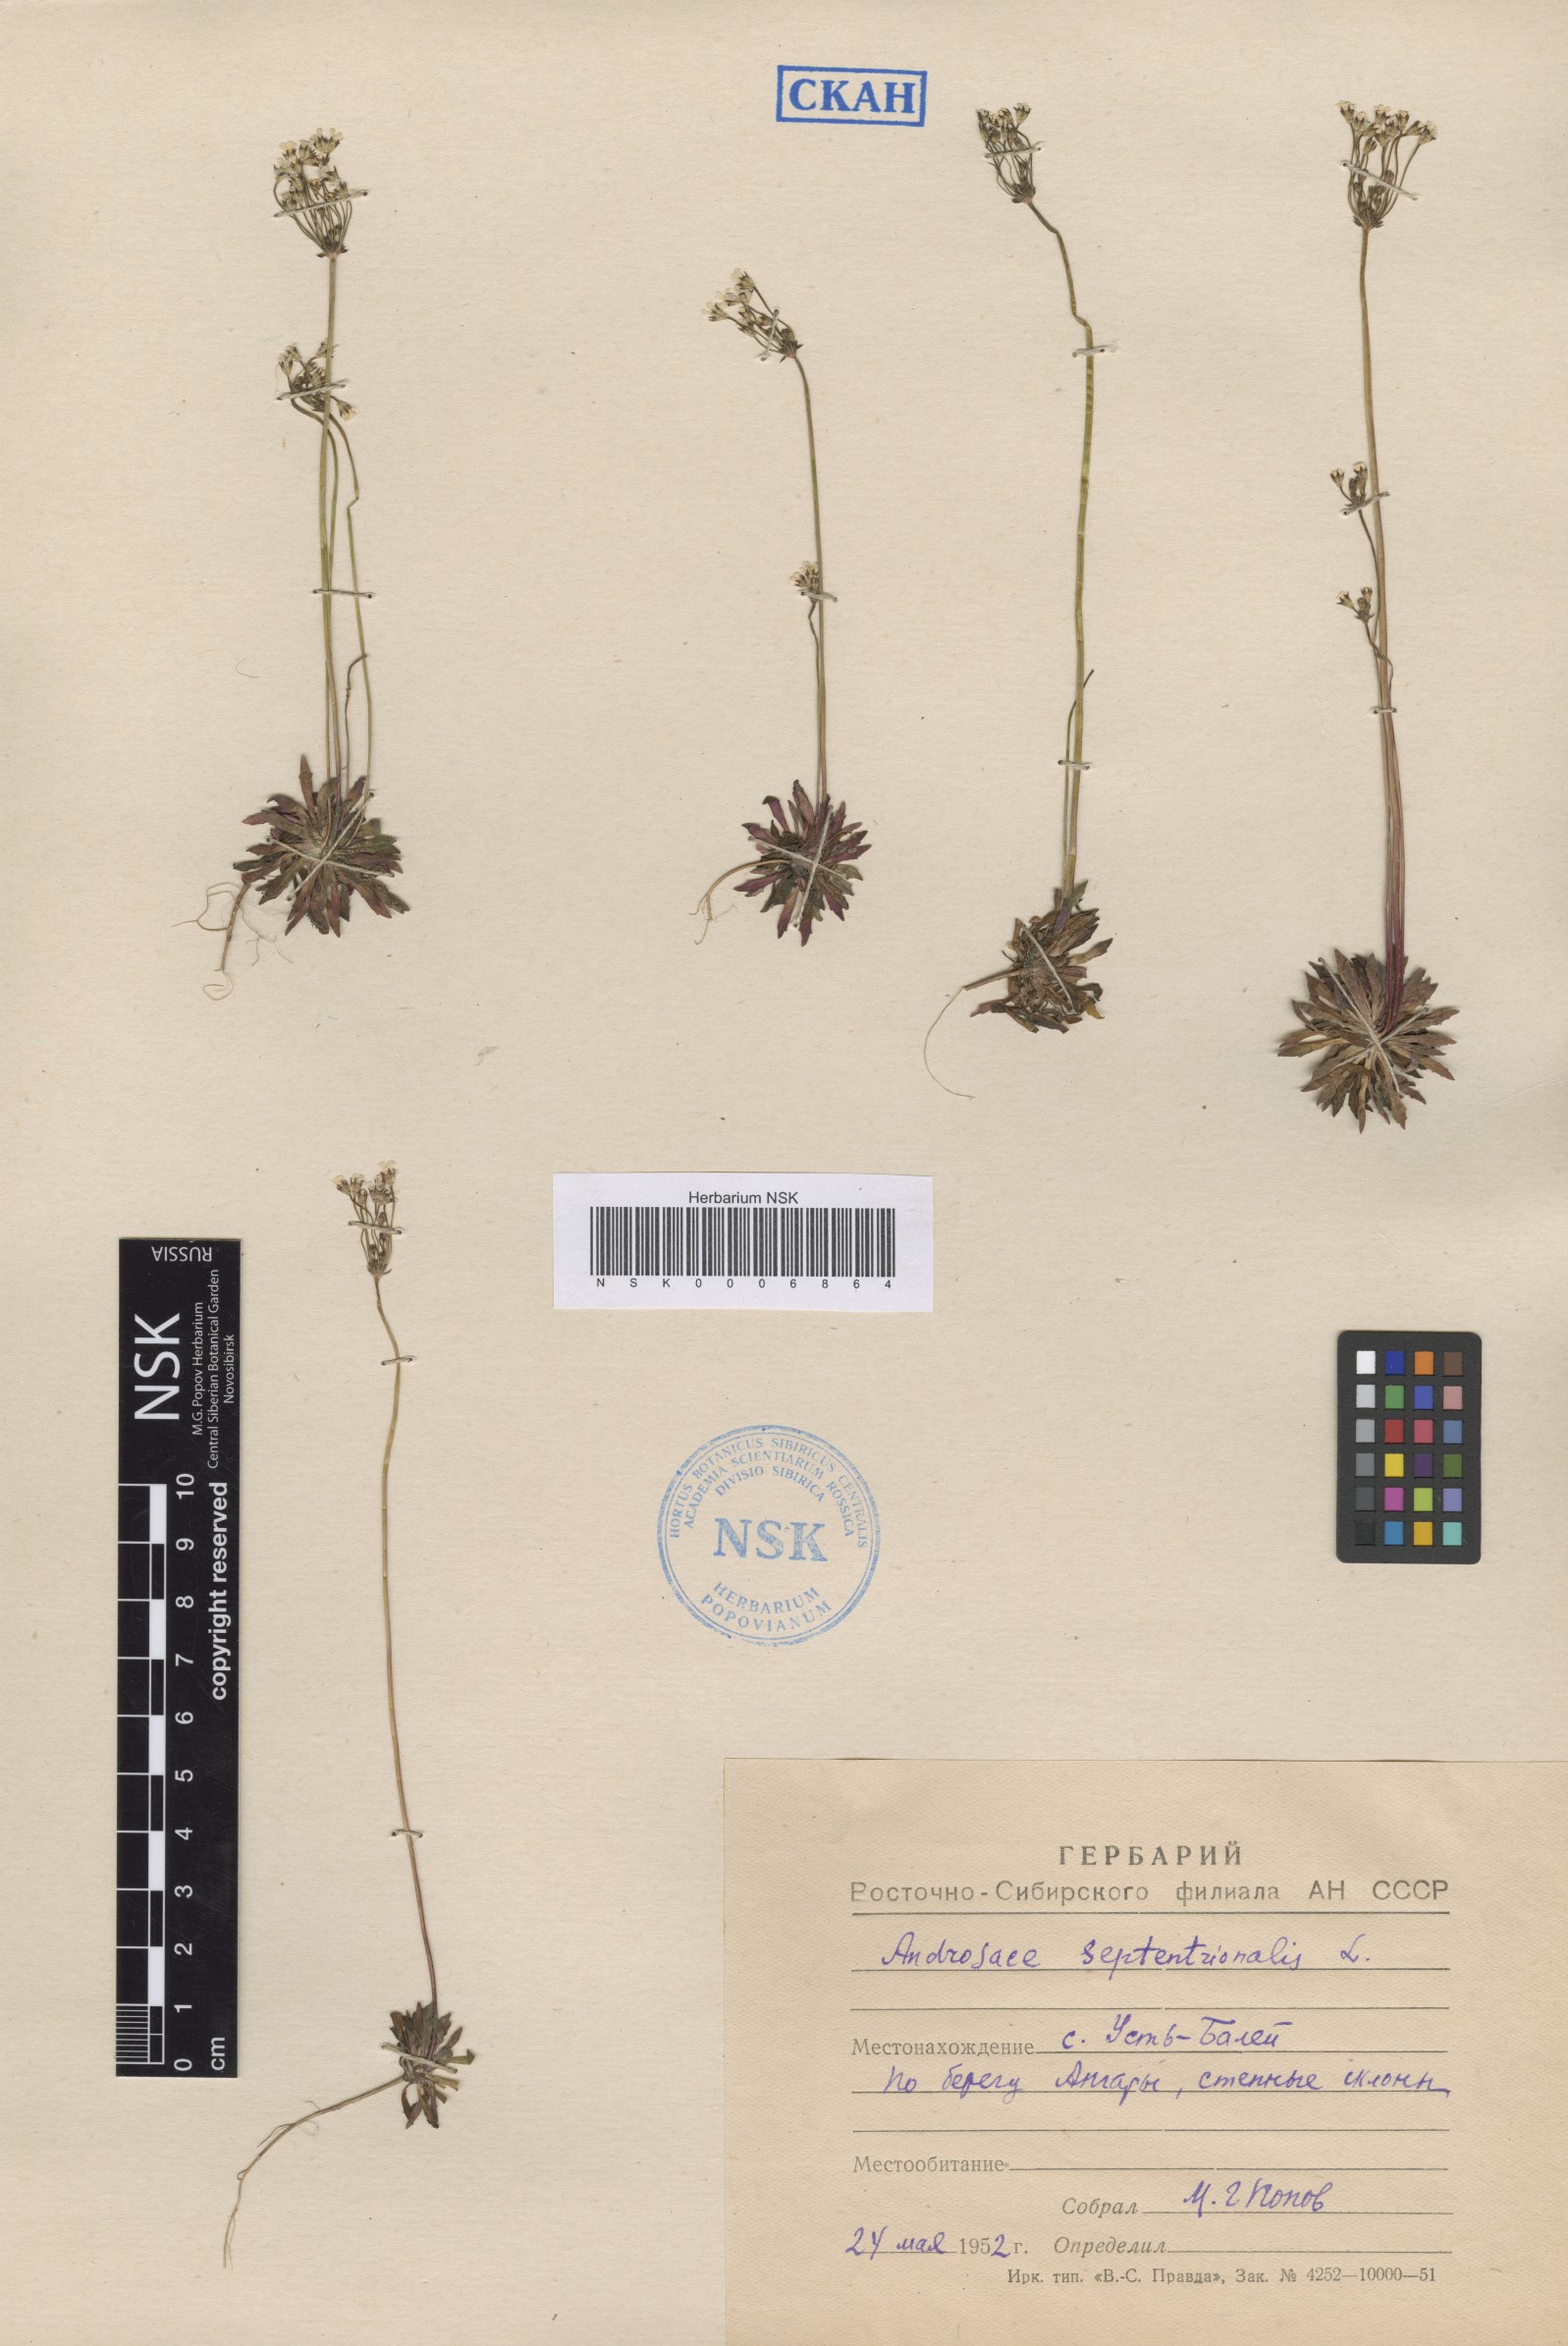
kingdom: Plantae
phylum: Tracheophyta
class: Magnoliopsida
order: Ericales
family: Primulaceae
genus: Androsace
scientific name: Androsace septentrionalis
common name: Hairy northern fairy-candelabra
